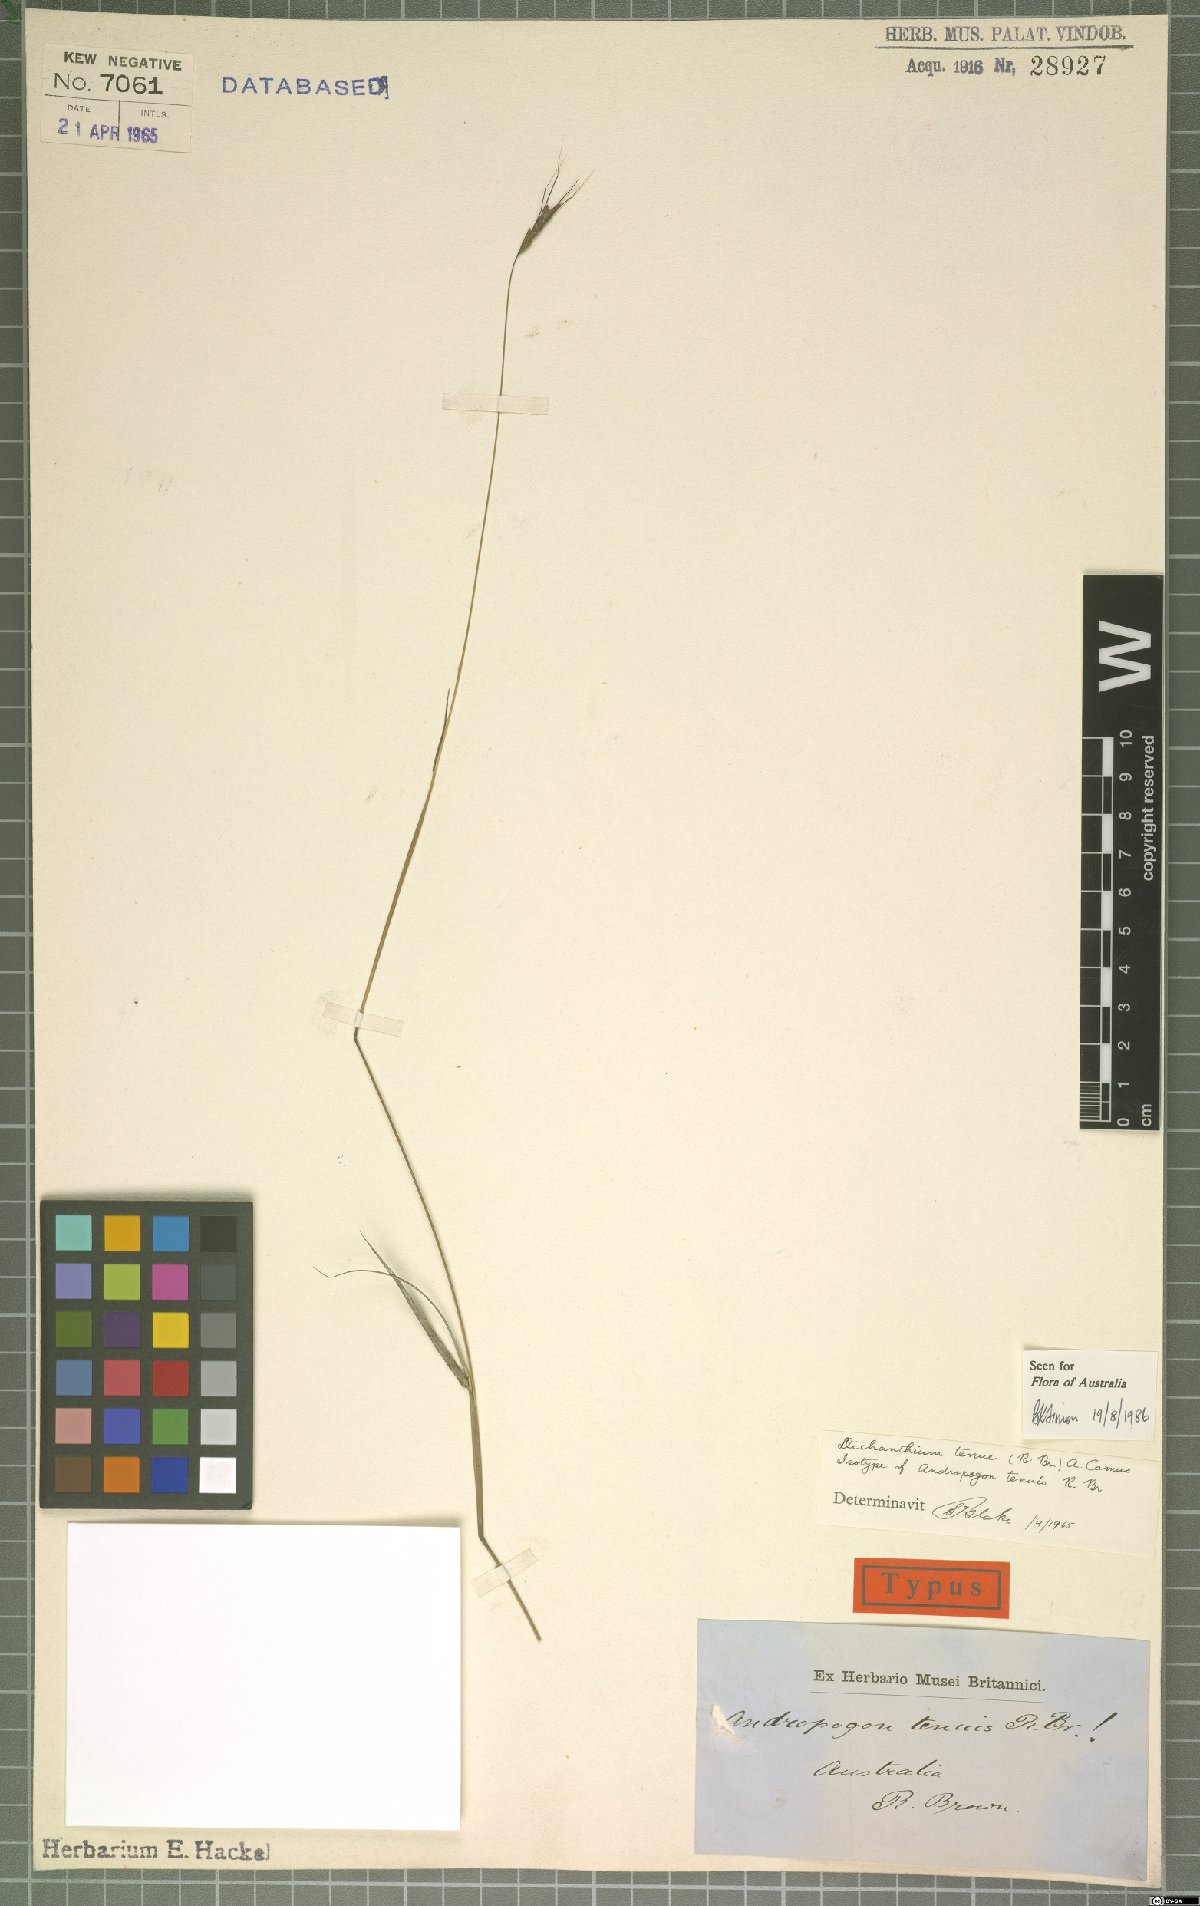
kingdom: Plantae
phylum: Tracheophyta
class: Liliopsida
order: Poales
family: Poaceae
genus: Dichanthium
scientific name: Dichanthium tenue
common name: Slender bluestem
